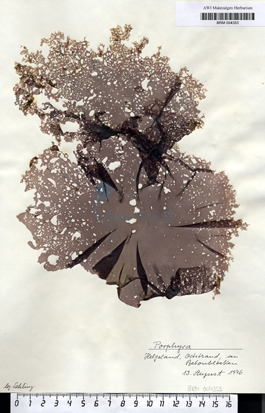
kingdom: Plantae
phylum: Rhodophyta
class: Bangiophyceae
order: Bangiales
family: Bangiaceae
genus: Porphyra
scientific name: Porphyra
